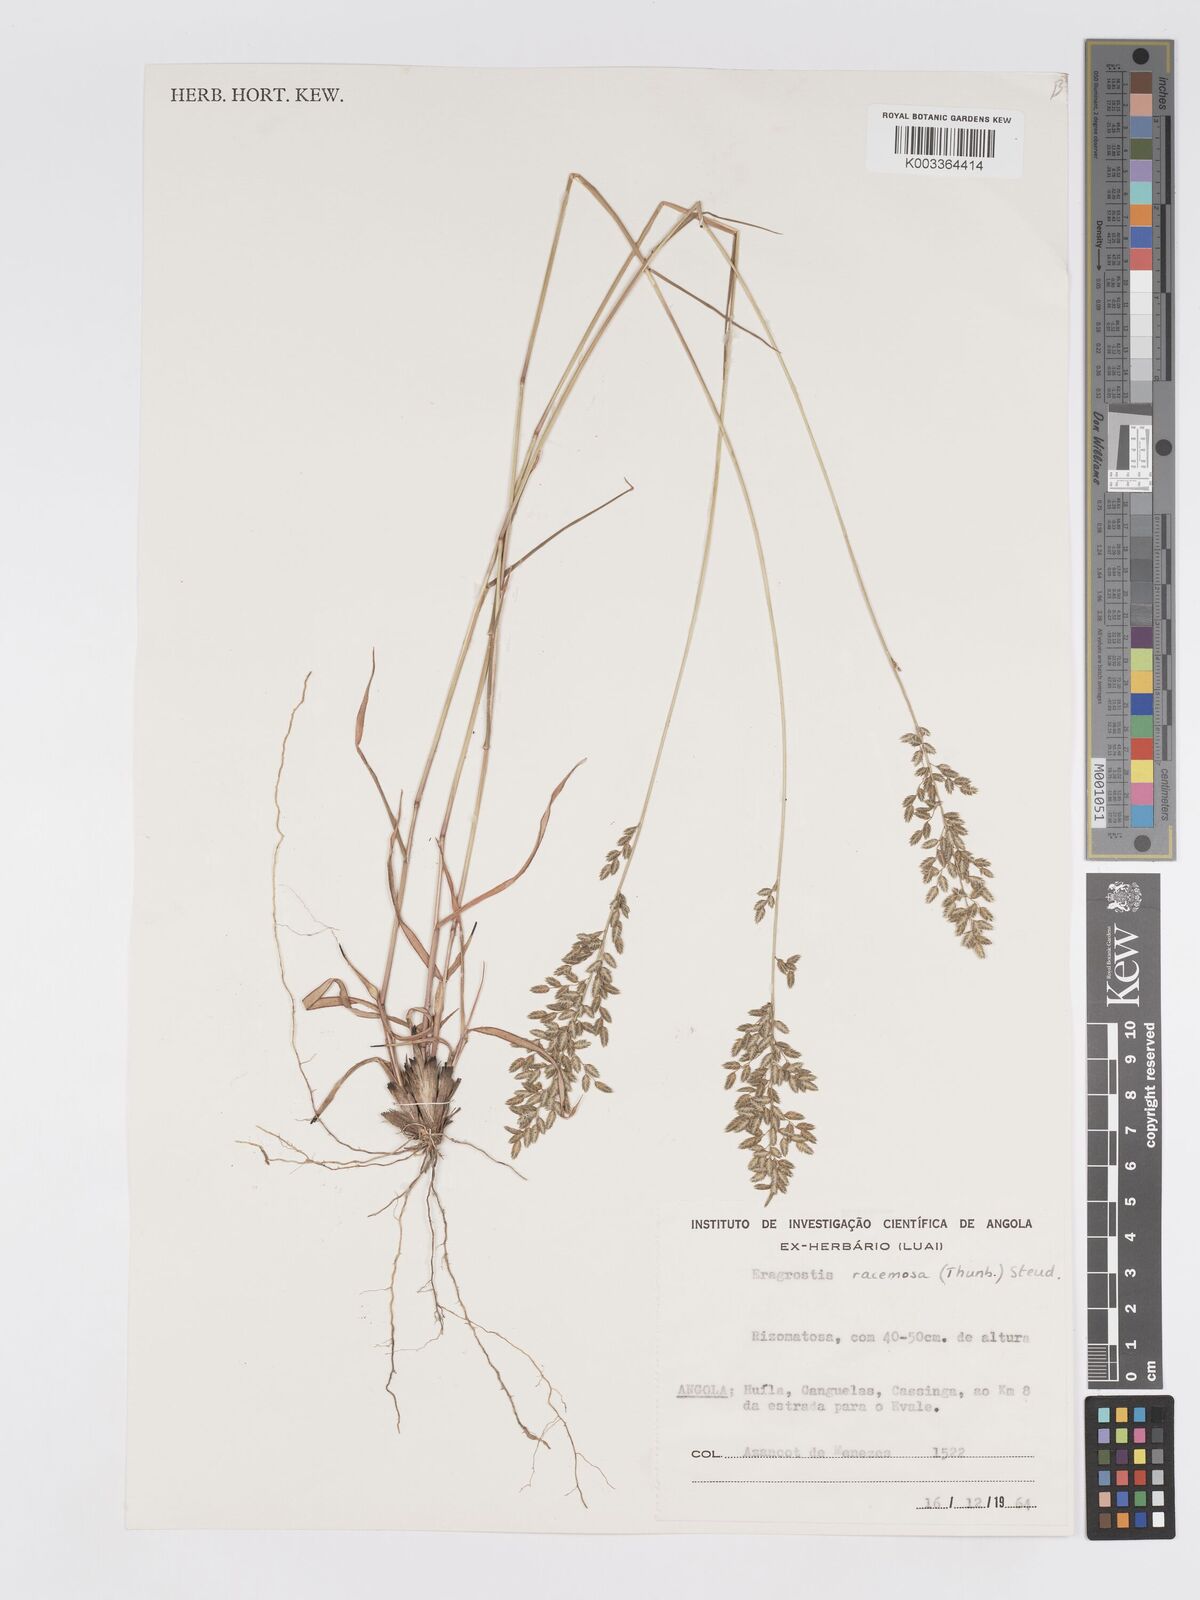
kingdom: Plantae
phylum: Tracheophyta
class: Liliopsida
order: Poales
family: Poaceae
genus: Eragrostis
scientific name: Eragrostis racemosa
